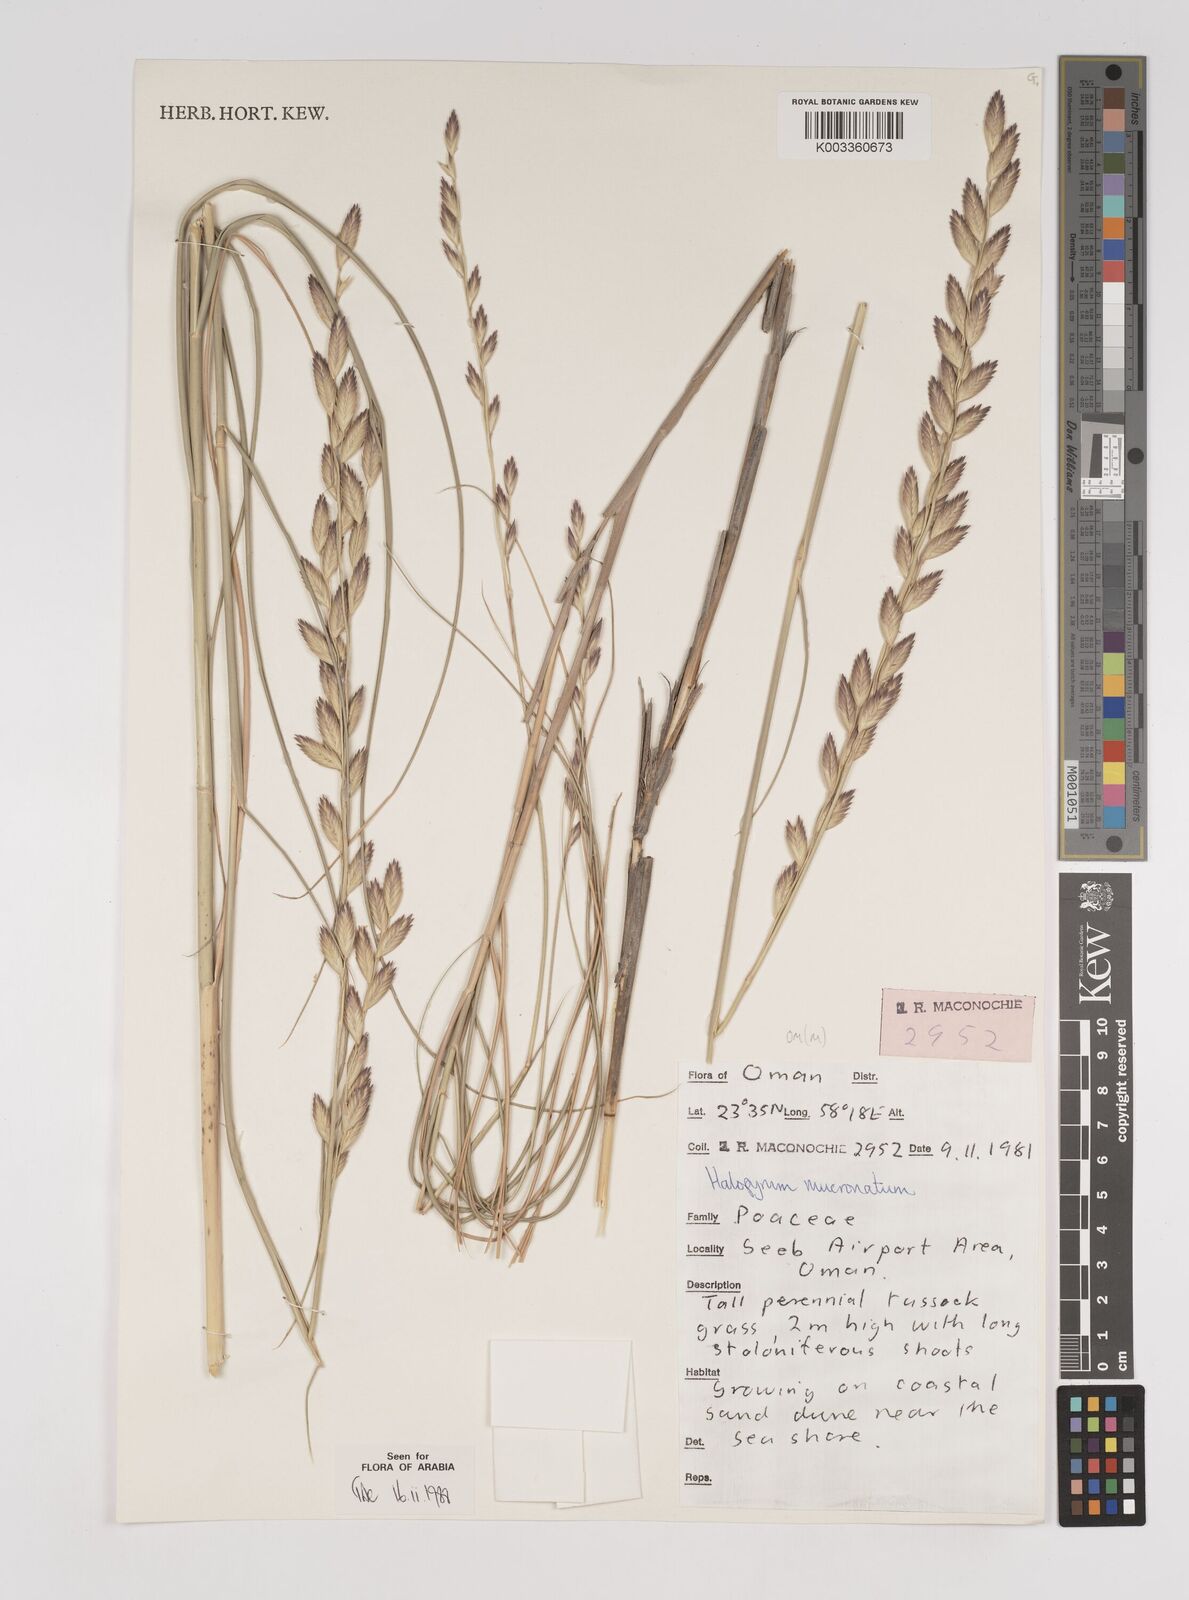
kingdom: Plantae
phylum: Tracheophyta
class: Liliopsida
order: Poales
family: Poaceae
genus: Halopyrum
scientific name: Halopyrum mucronatum
